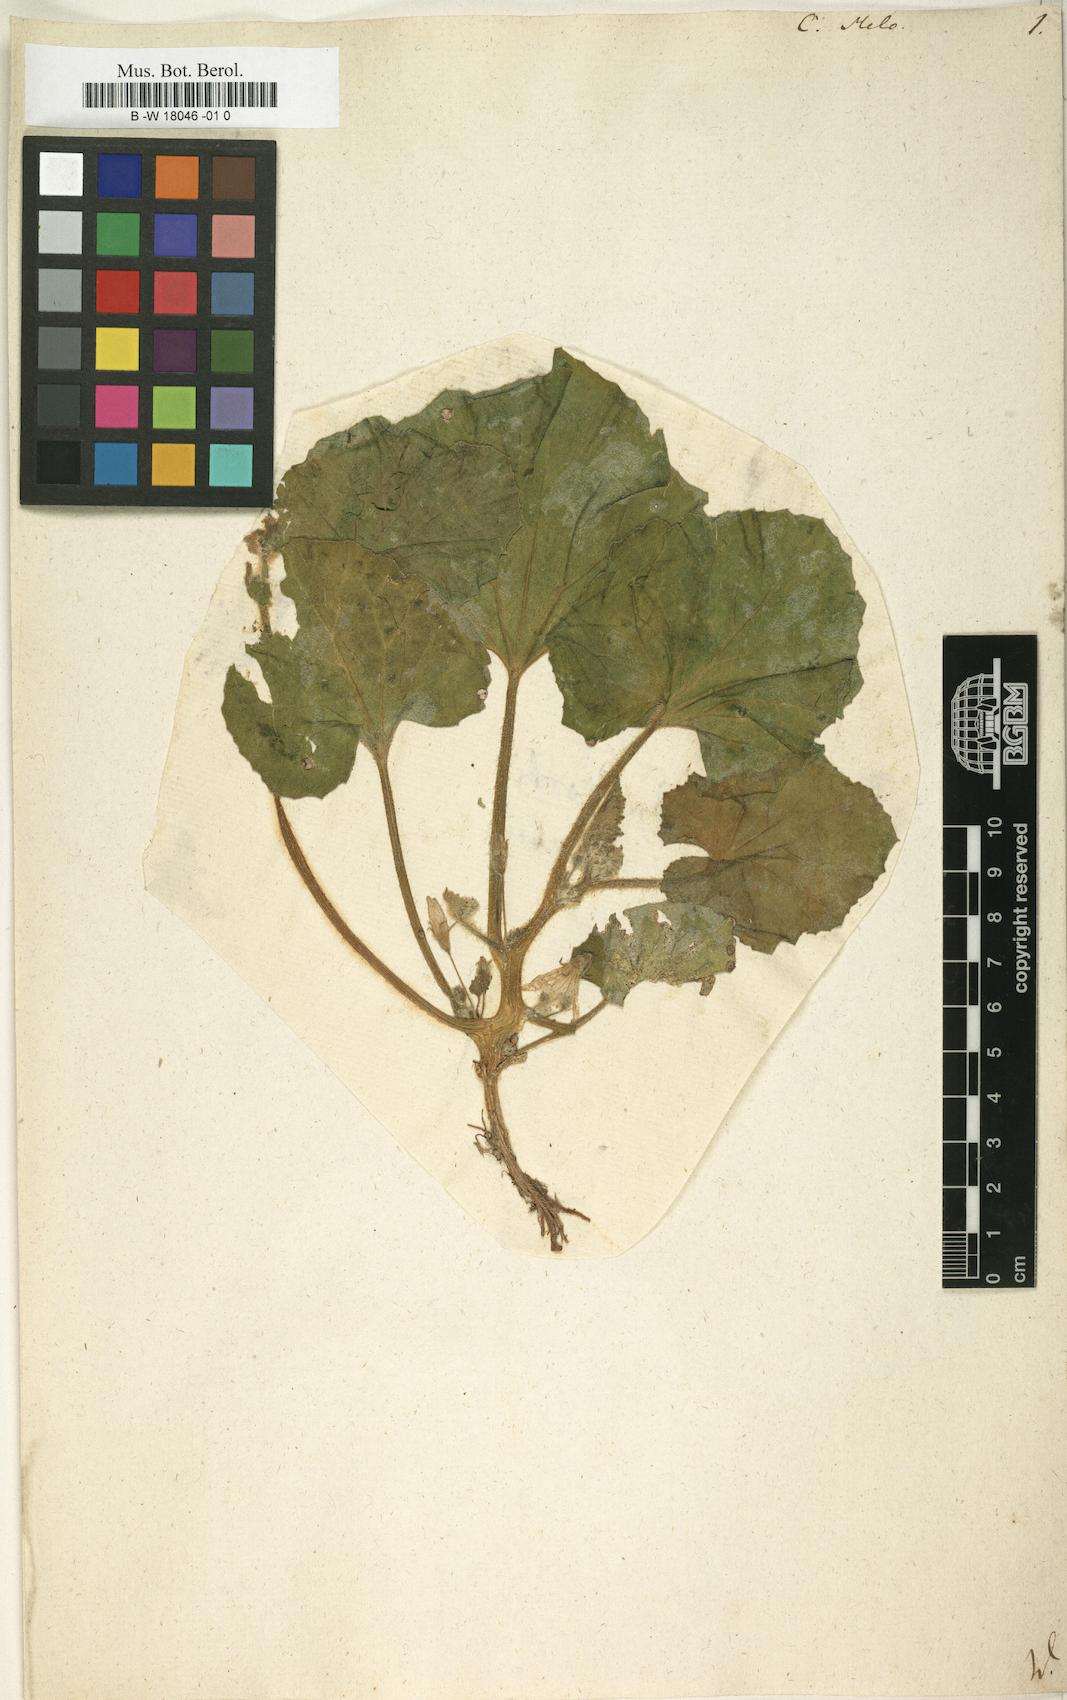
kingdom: Plantae
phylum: Tracheophyta
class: Magnoliopsida
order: Cucurbitales
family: Cucurbitaceae
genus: Cucumis
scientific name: Cucumis melo
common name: Melon
